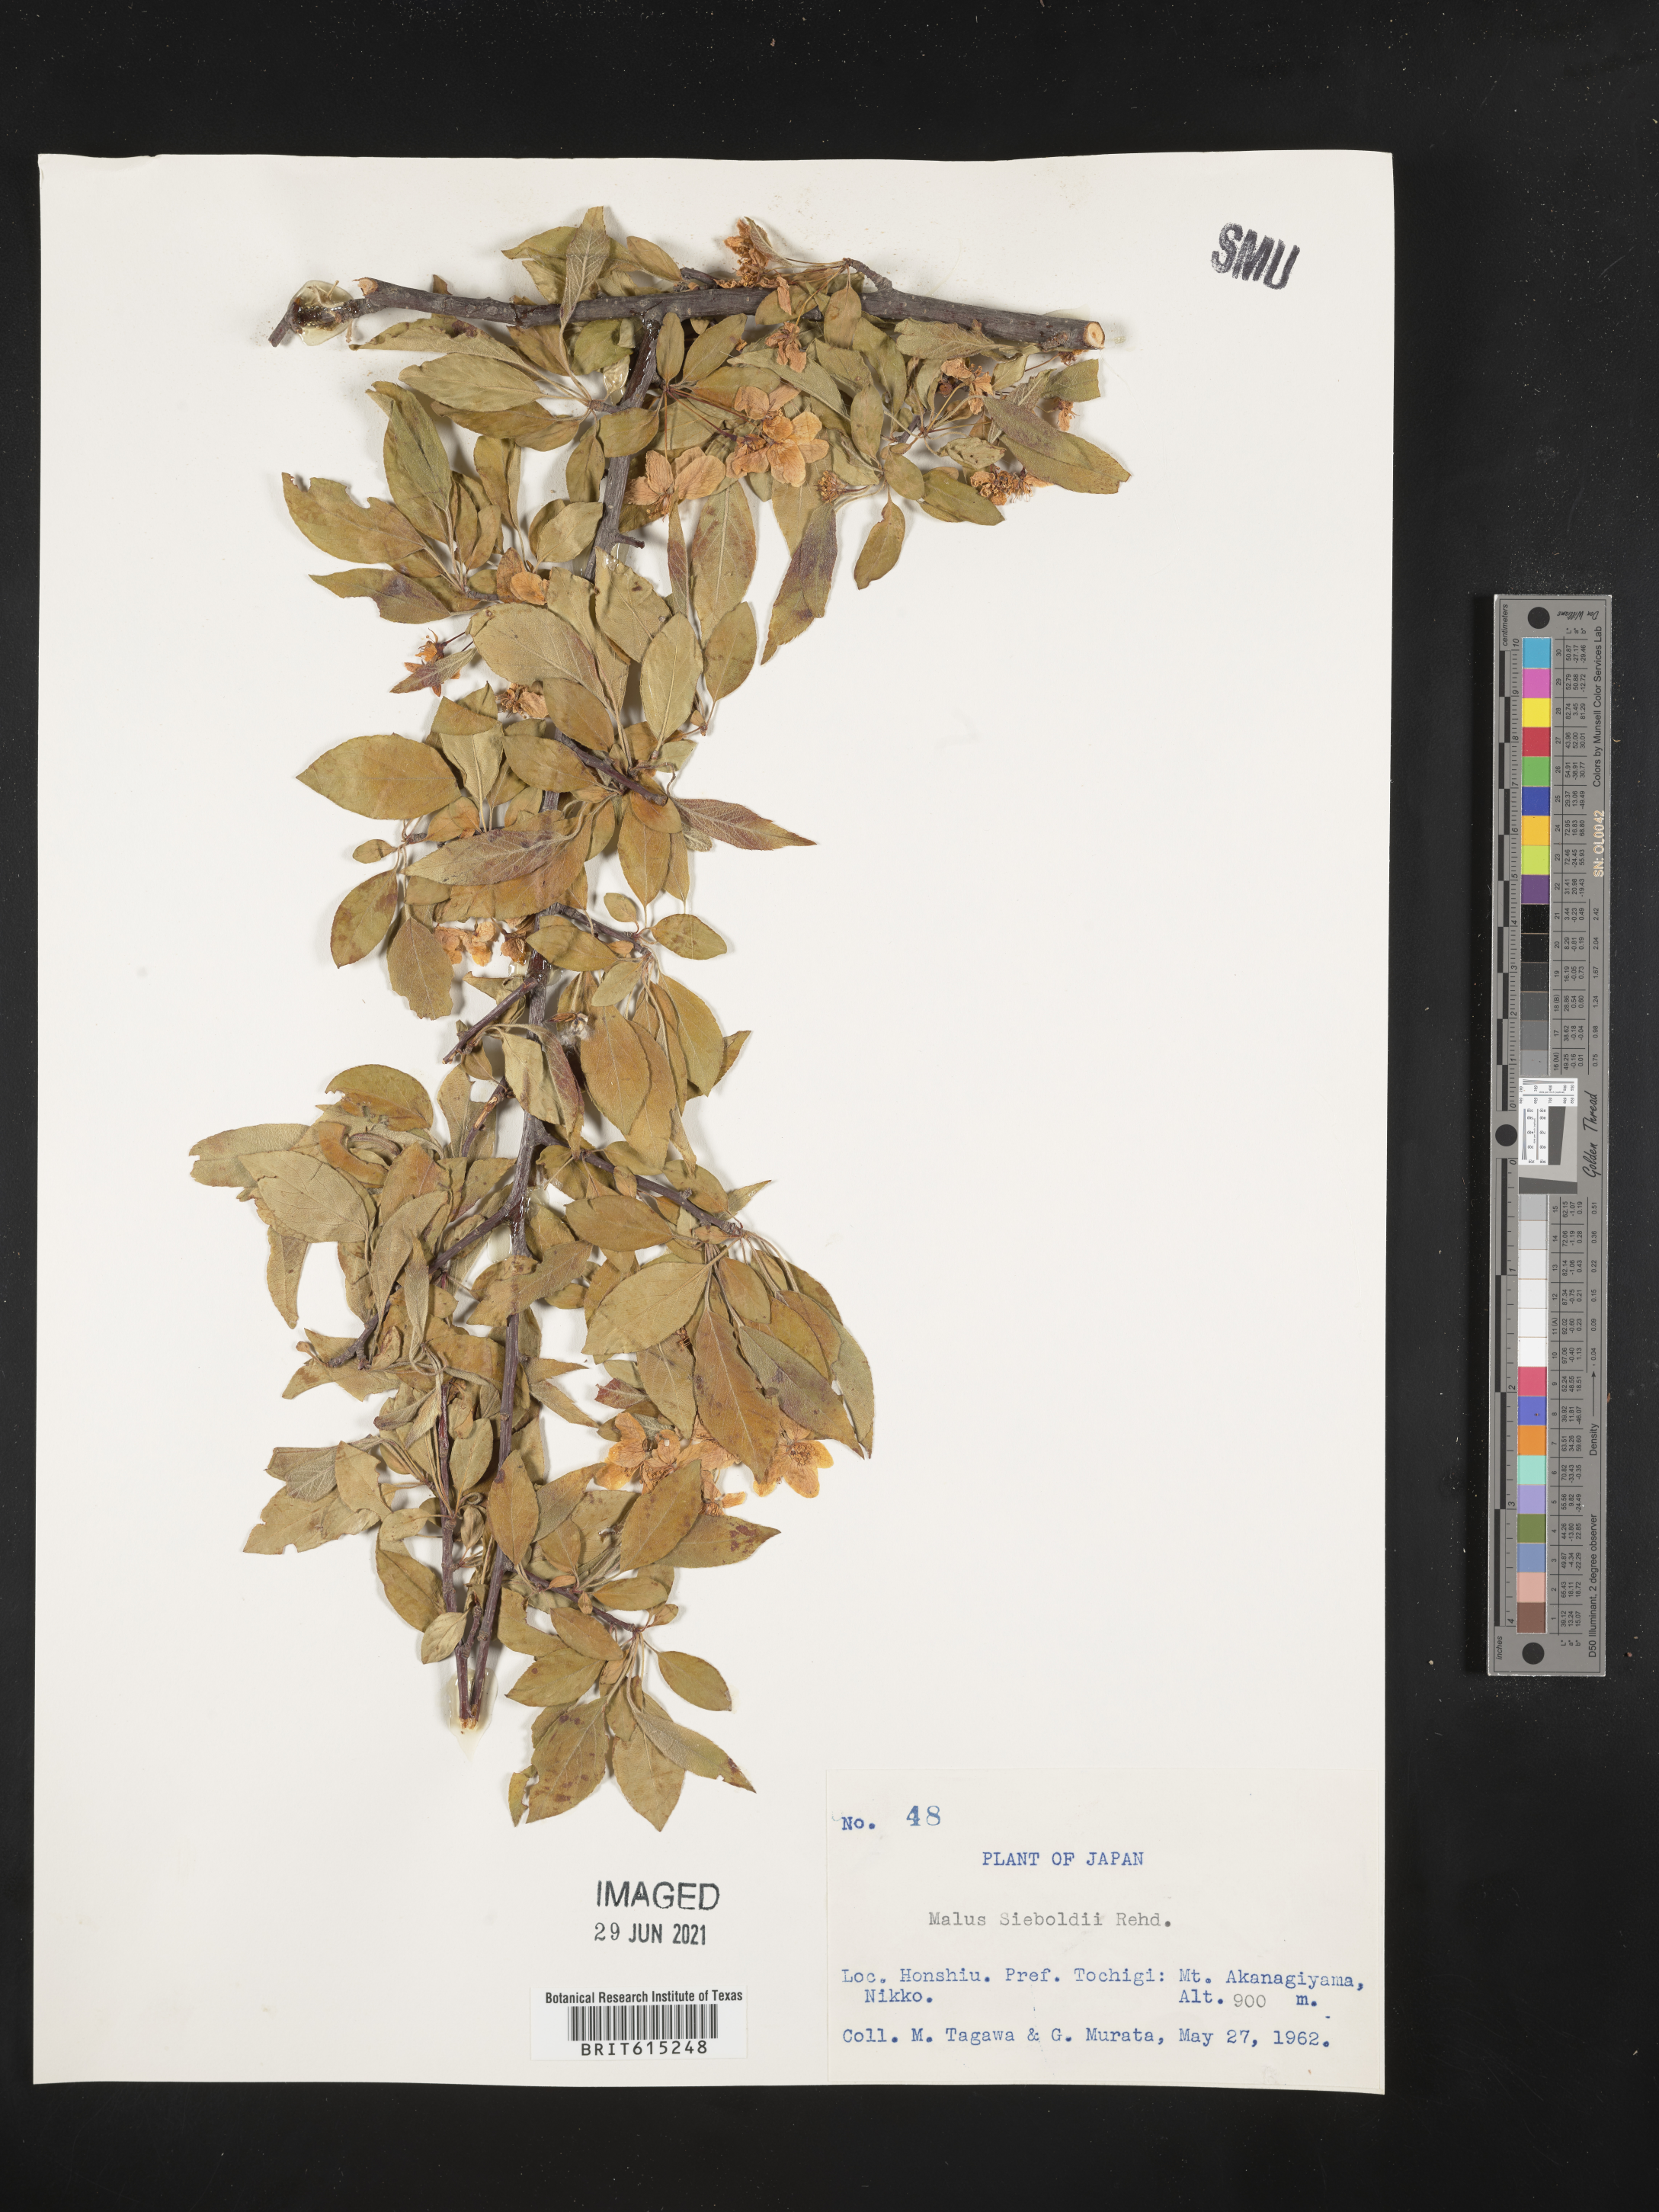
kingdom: Plantae
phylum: Tracheophyta
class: Magnoliopsida
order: Rosales
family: Rosaceae
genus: Malus
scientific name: Malus toringo
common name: Japanese crabapple
